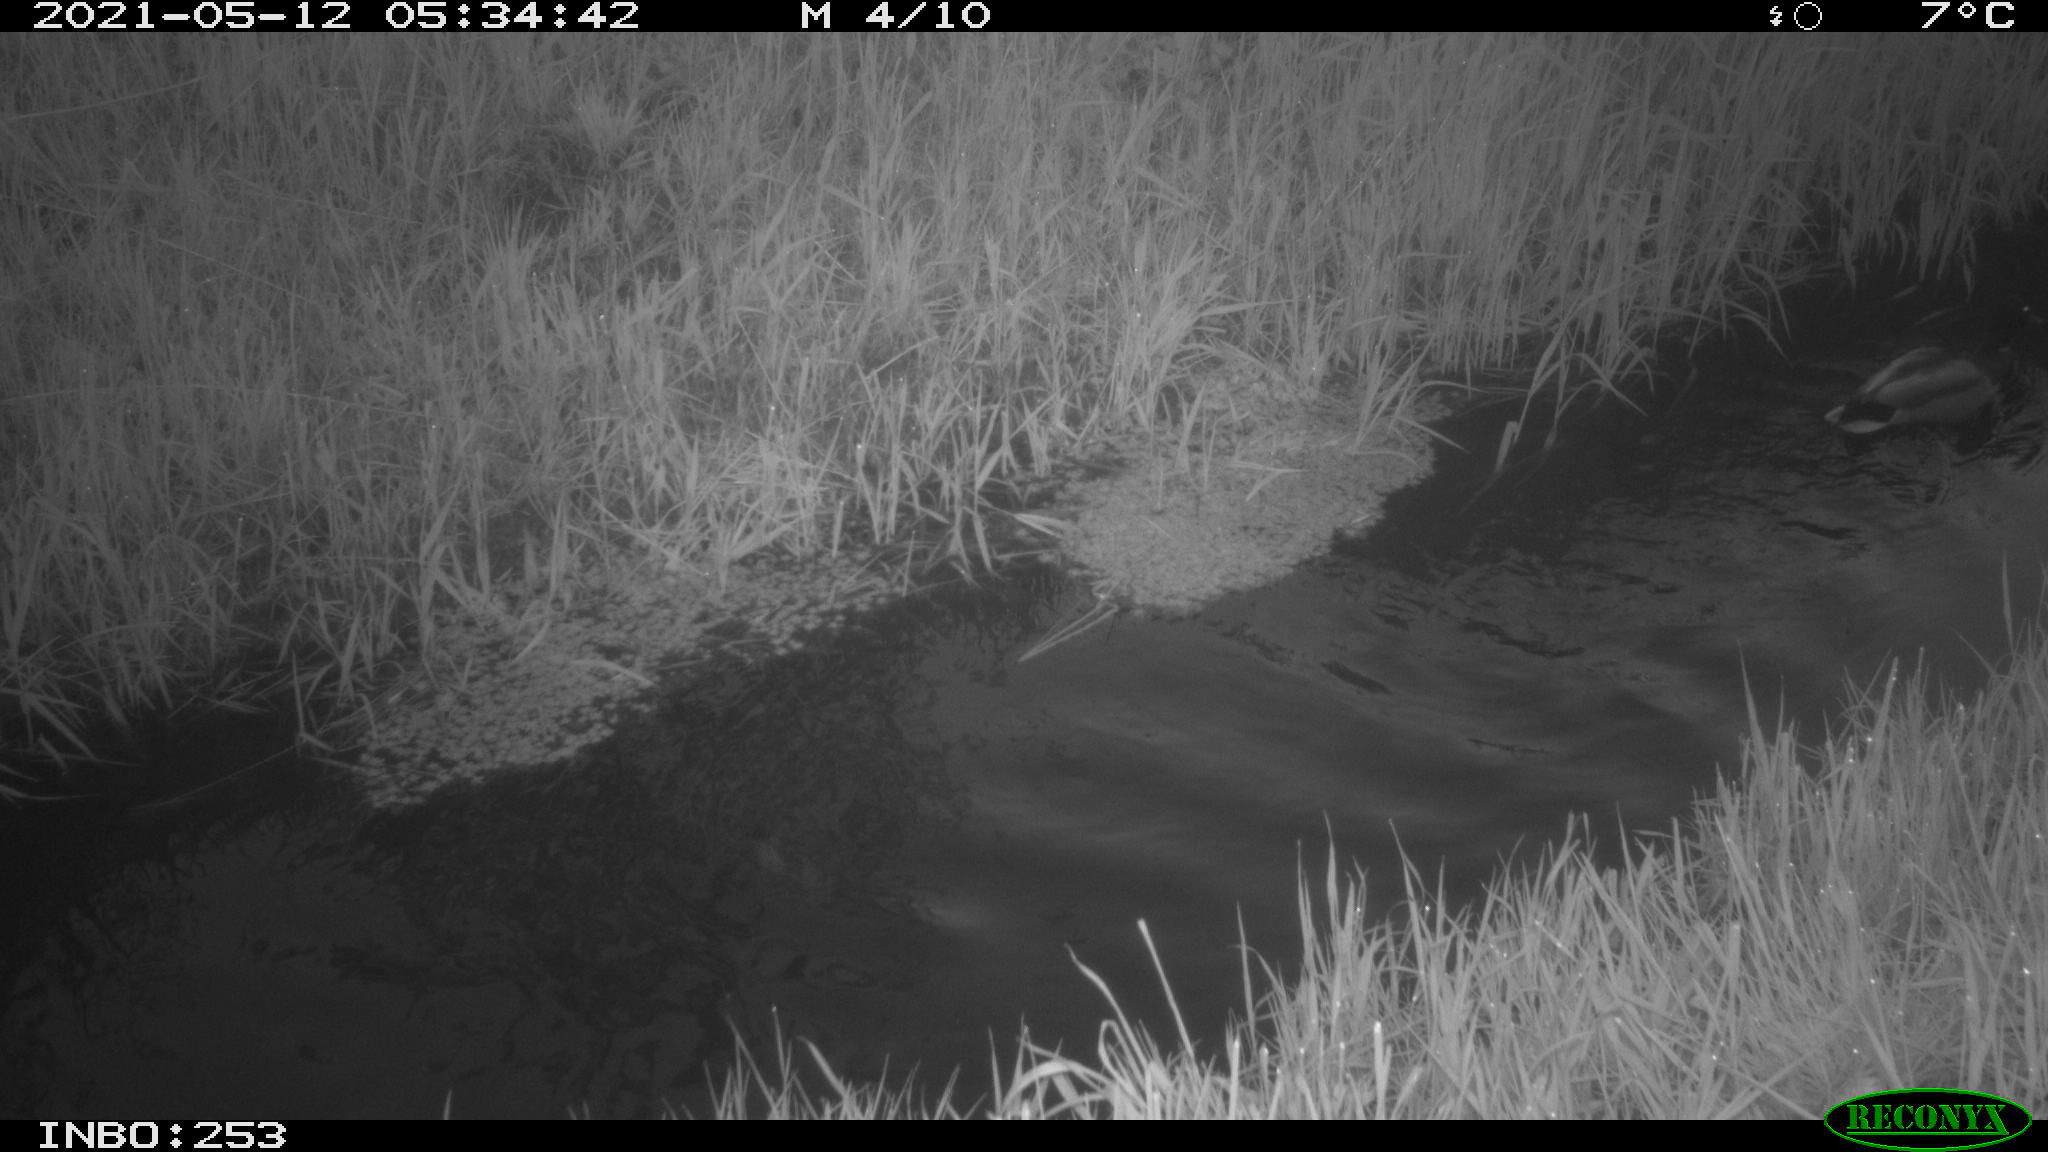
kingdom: Animalia
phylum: Chordata
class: Aves
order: Anseriformes
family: Anatidae
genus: Anas
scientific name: Anas platyrhynchos
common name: Mallard
